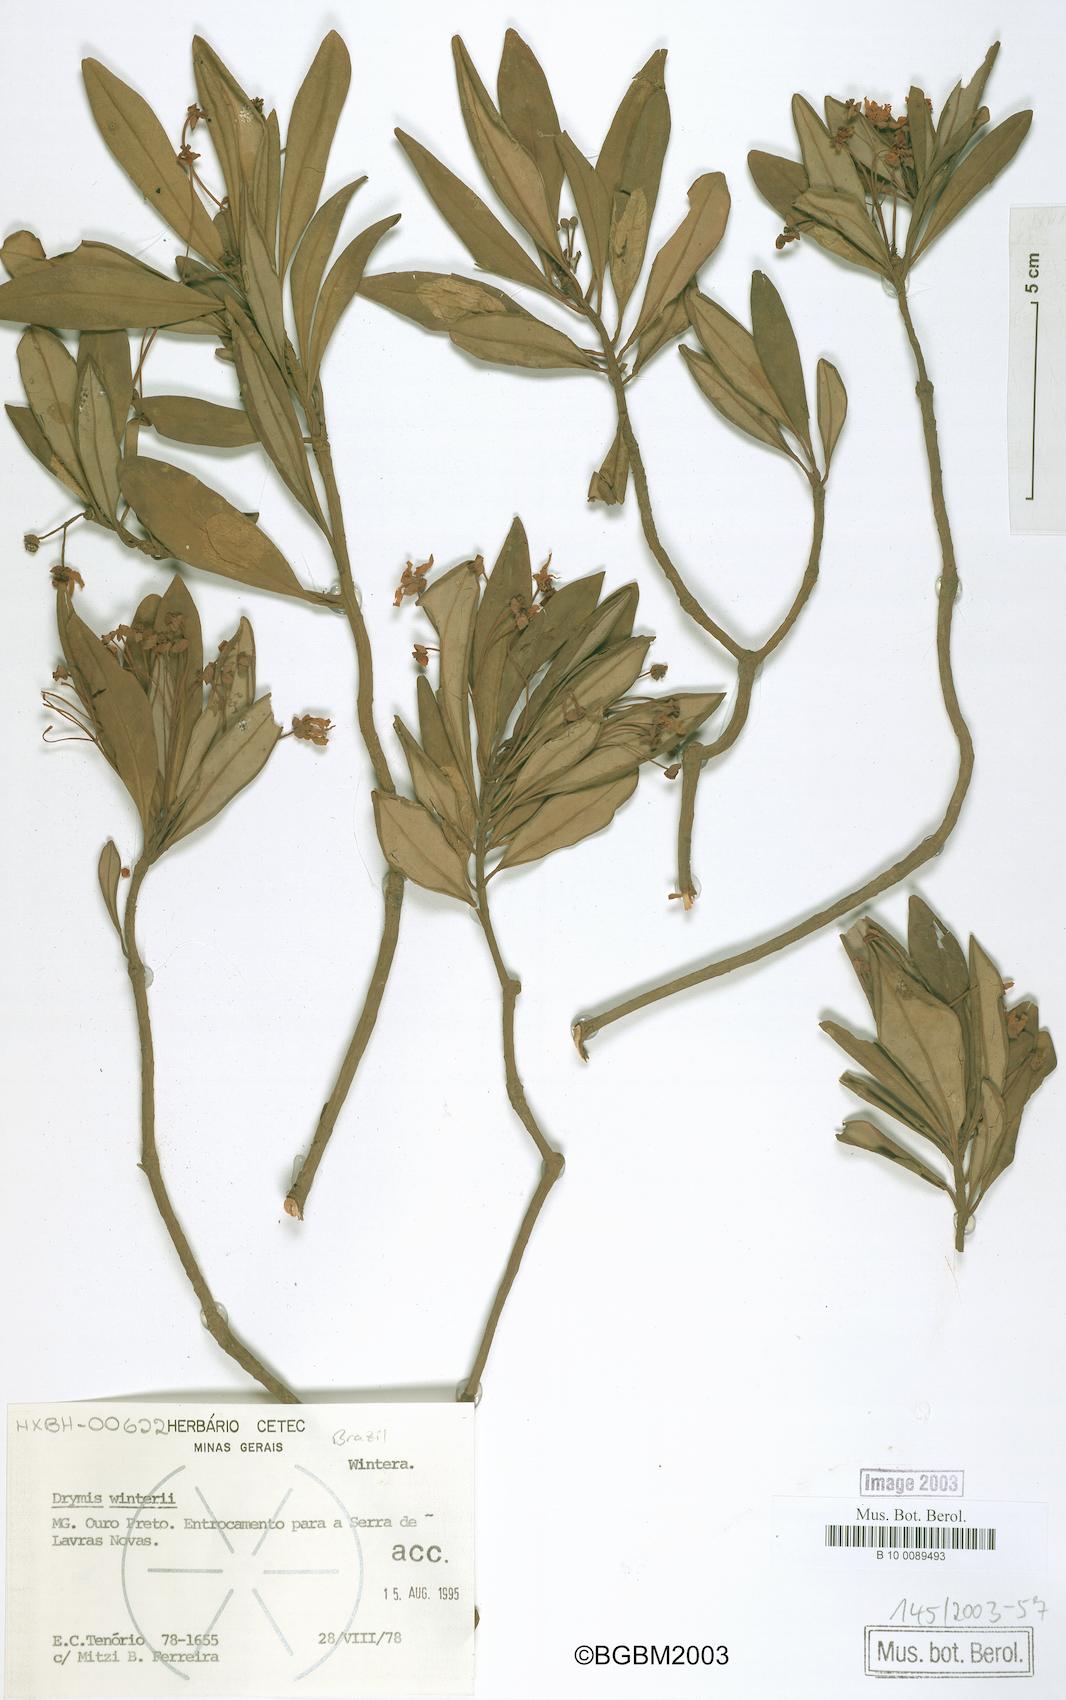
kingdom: Plantae
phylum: Tracheophyta
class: Magnoliopsida
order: Canellales
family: Winteraceae
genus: Drimys
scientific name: Drimys winteri
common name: Winter's-bark
